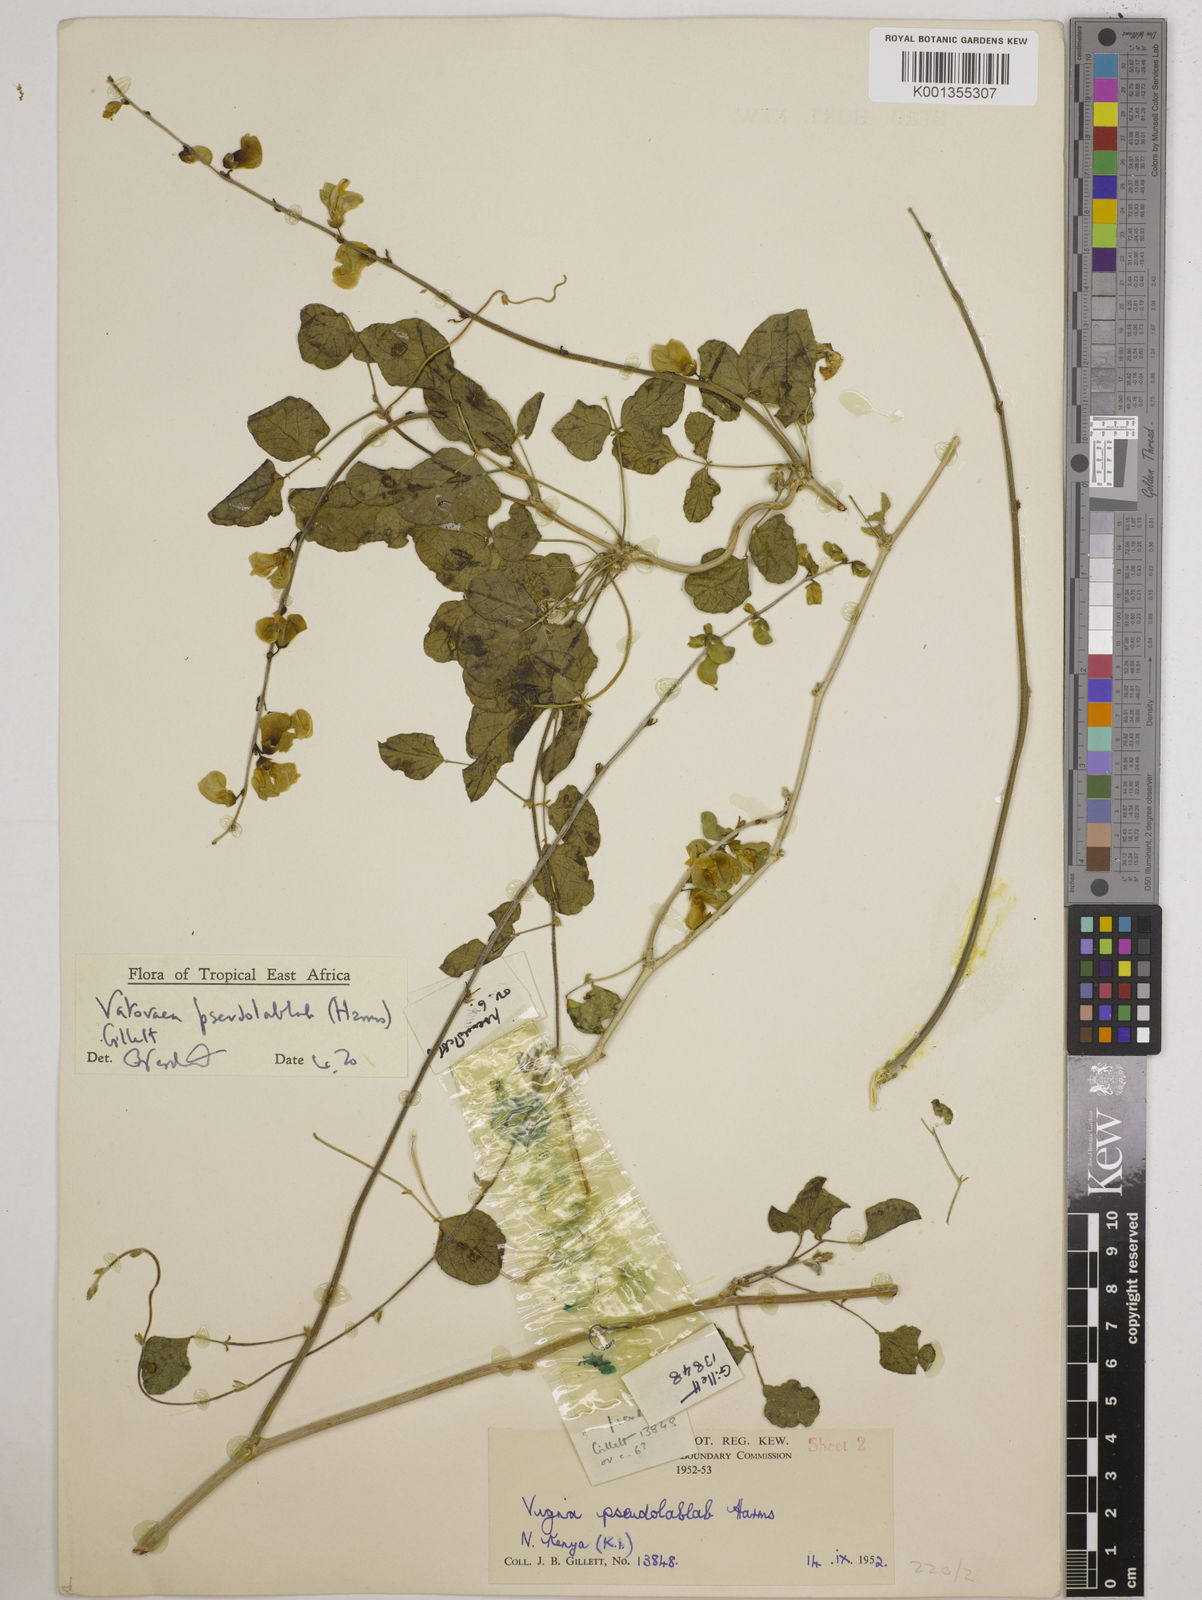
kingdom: Plantae
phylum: Tracheophyta
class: Magnoliopsida
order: Fabales
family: Fabaceae
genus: Vatovaea
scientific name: Vatovaea pseudolablab
